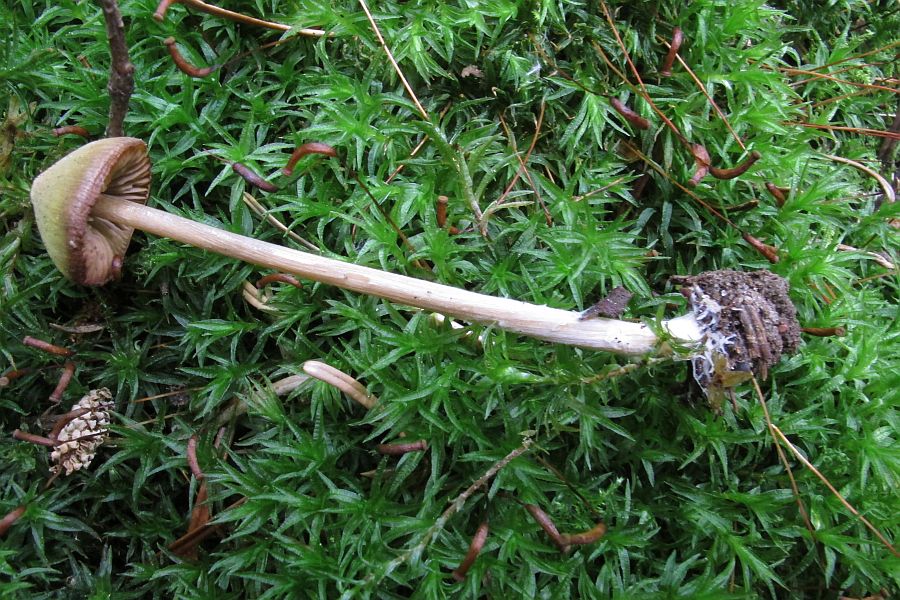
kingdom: Fungi
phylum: Basidiomycota
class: Agaricomycetes
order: Agaricales
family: Entolomataceae
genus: Entoloma
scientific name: Entoloma pallescens
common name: tidlig rødblad
